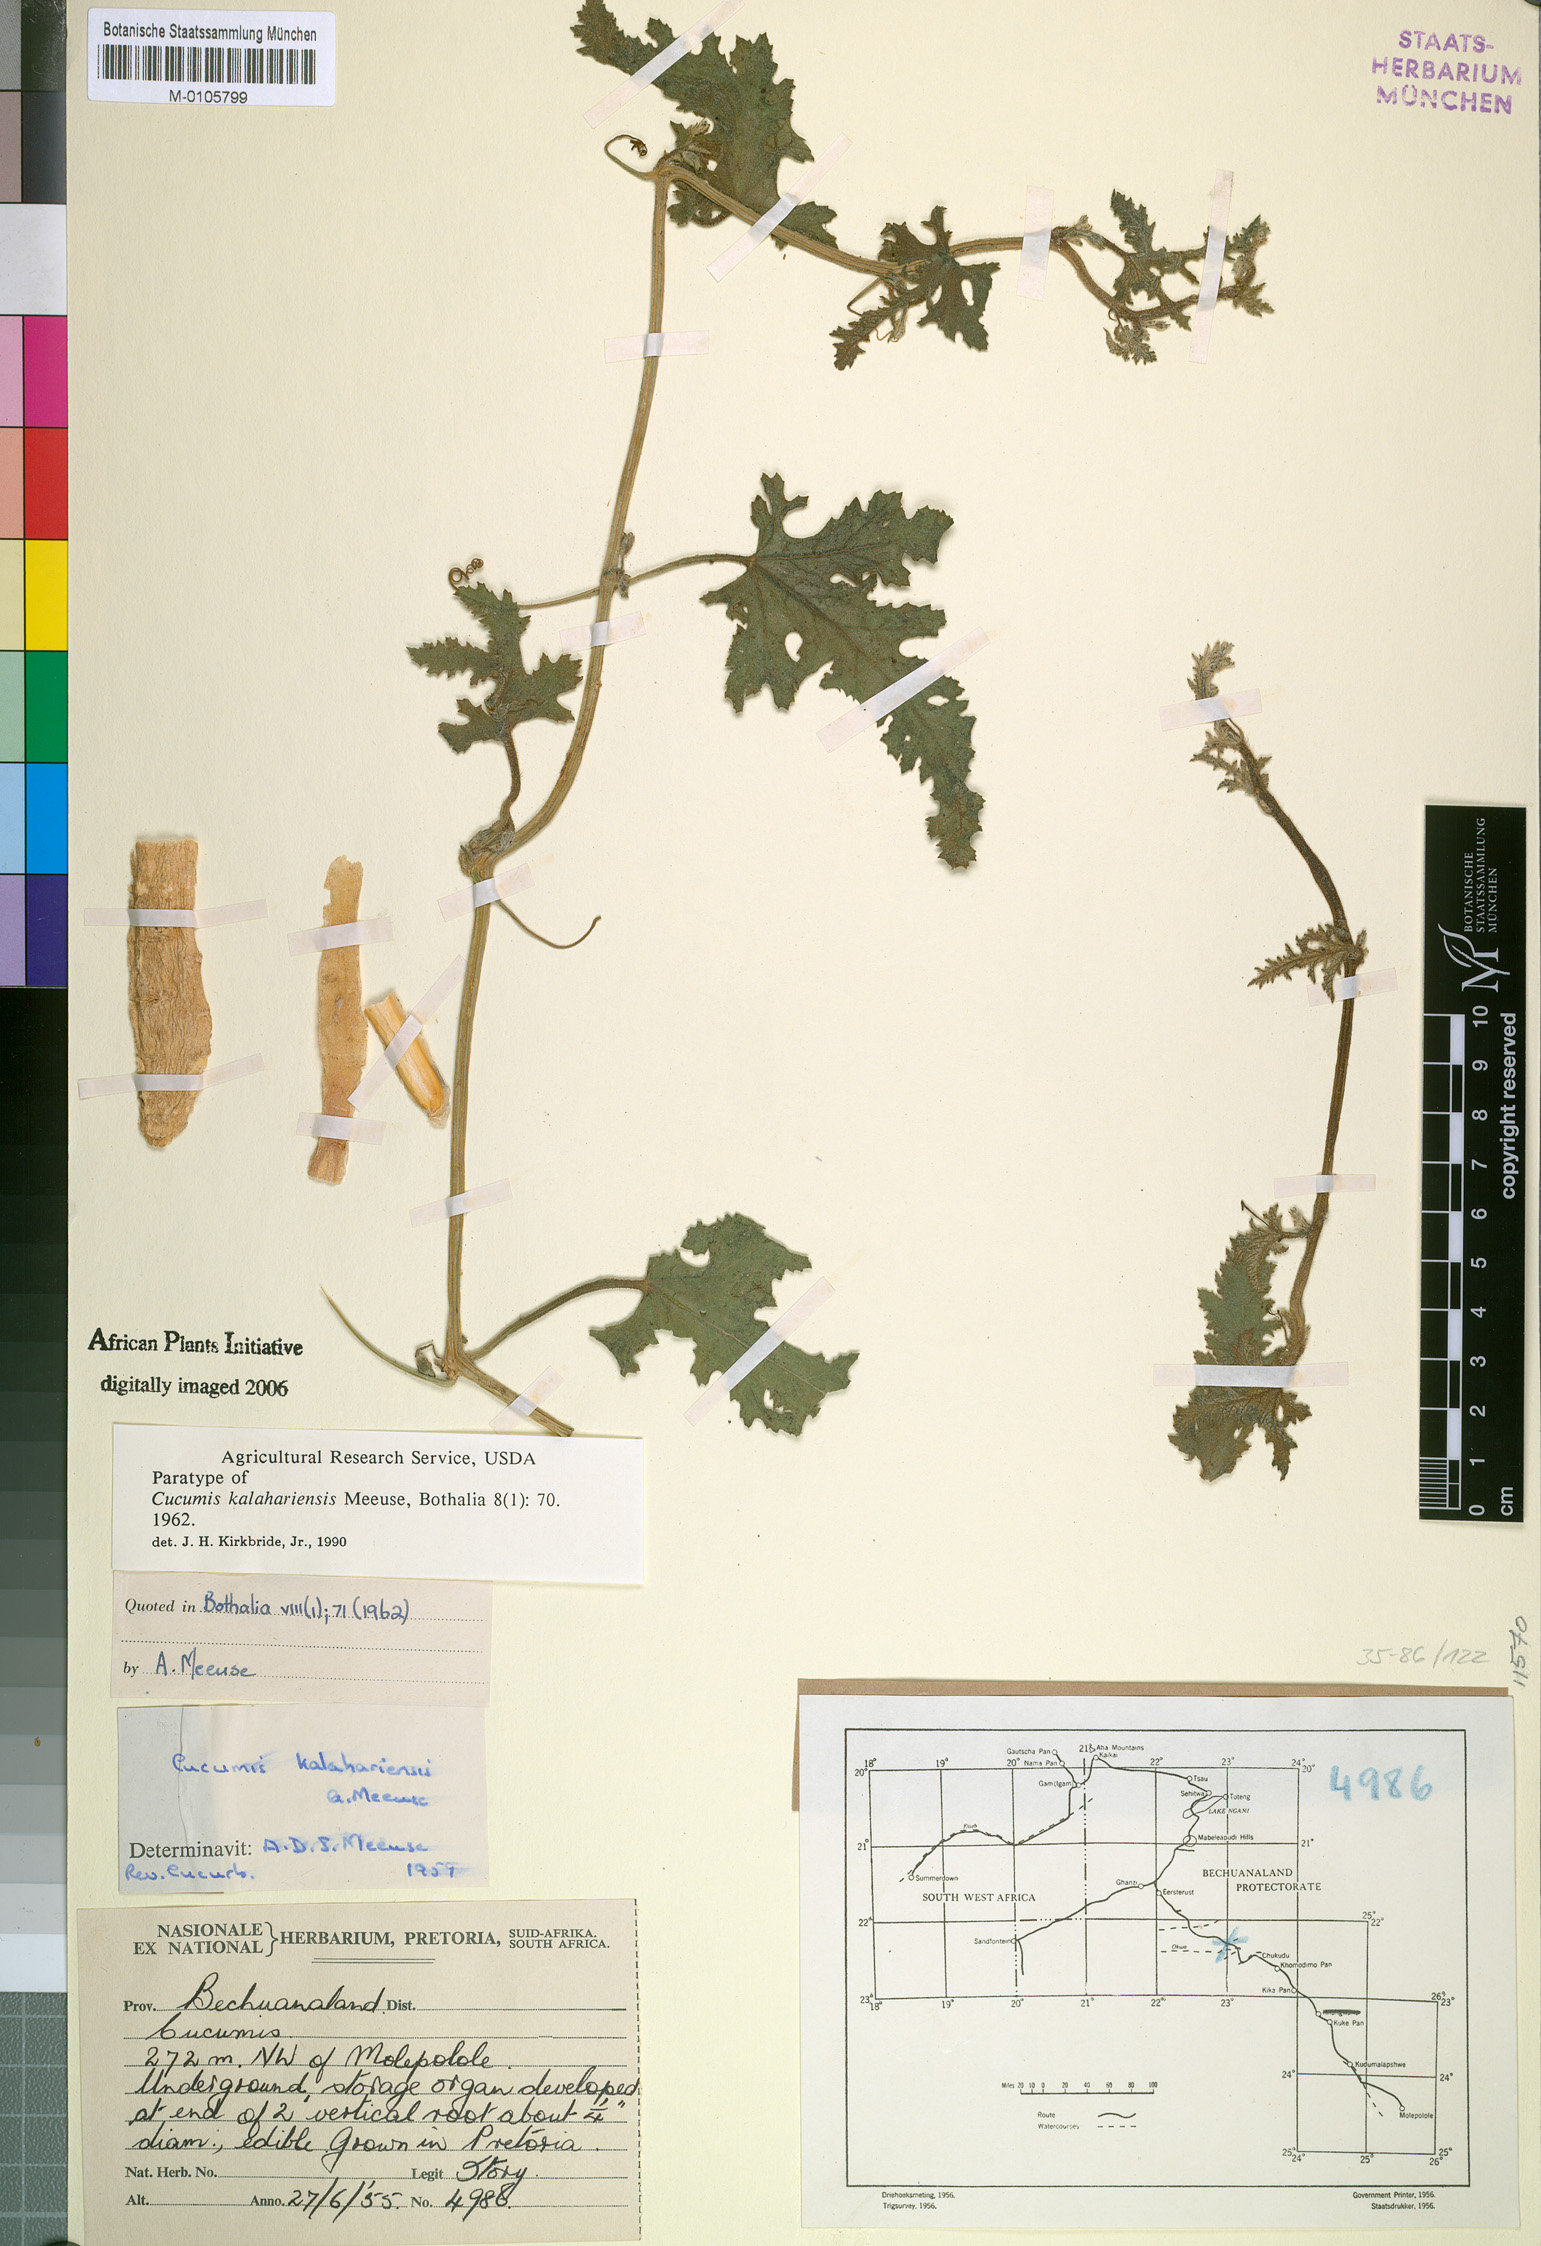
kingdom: Plantae
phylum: Tracheophyta
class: Magnoliopsida
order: Cucurbitales
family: Cucurbitaceae
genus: Cucumis
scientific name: Cucumis kalahariensis
